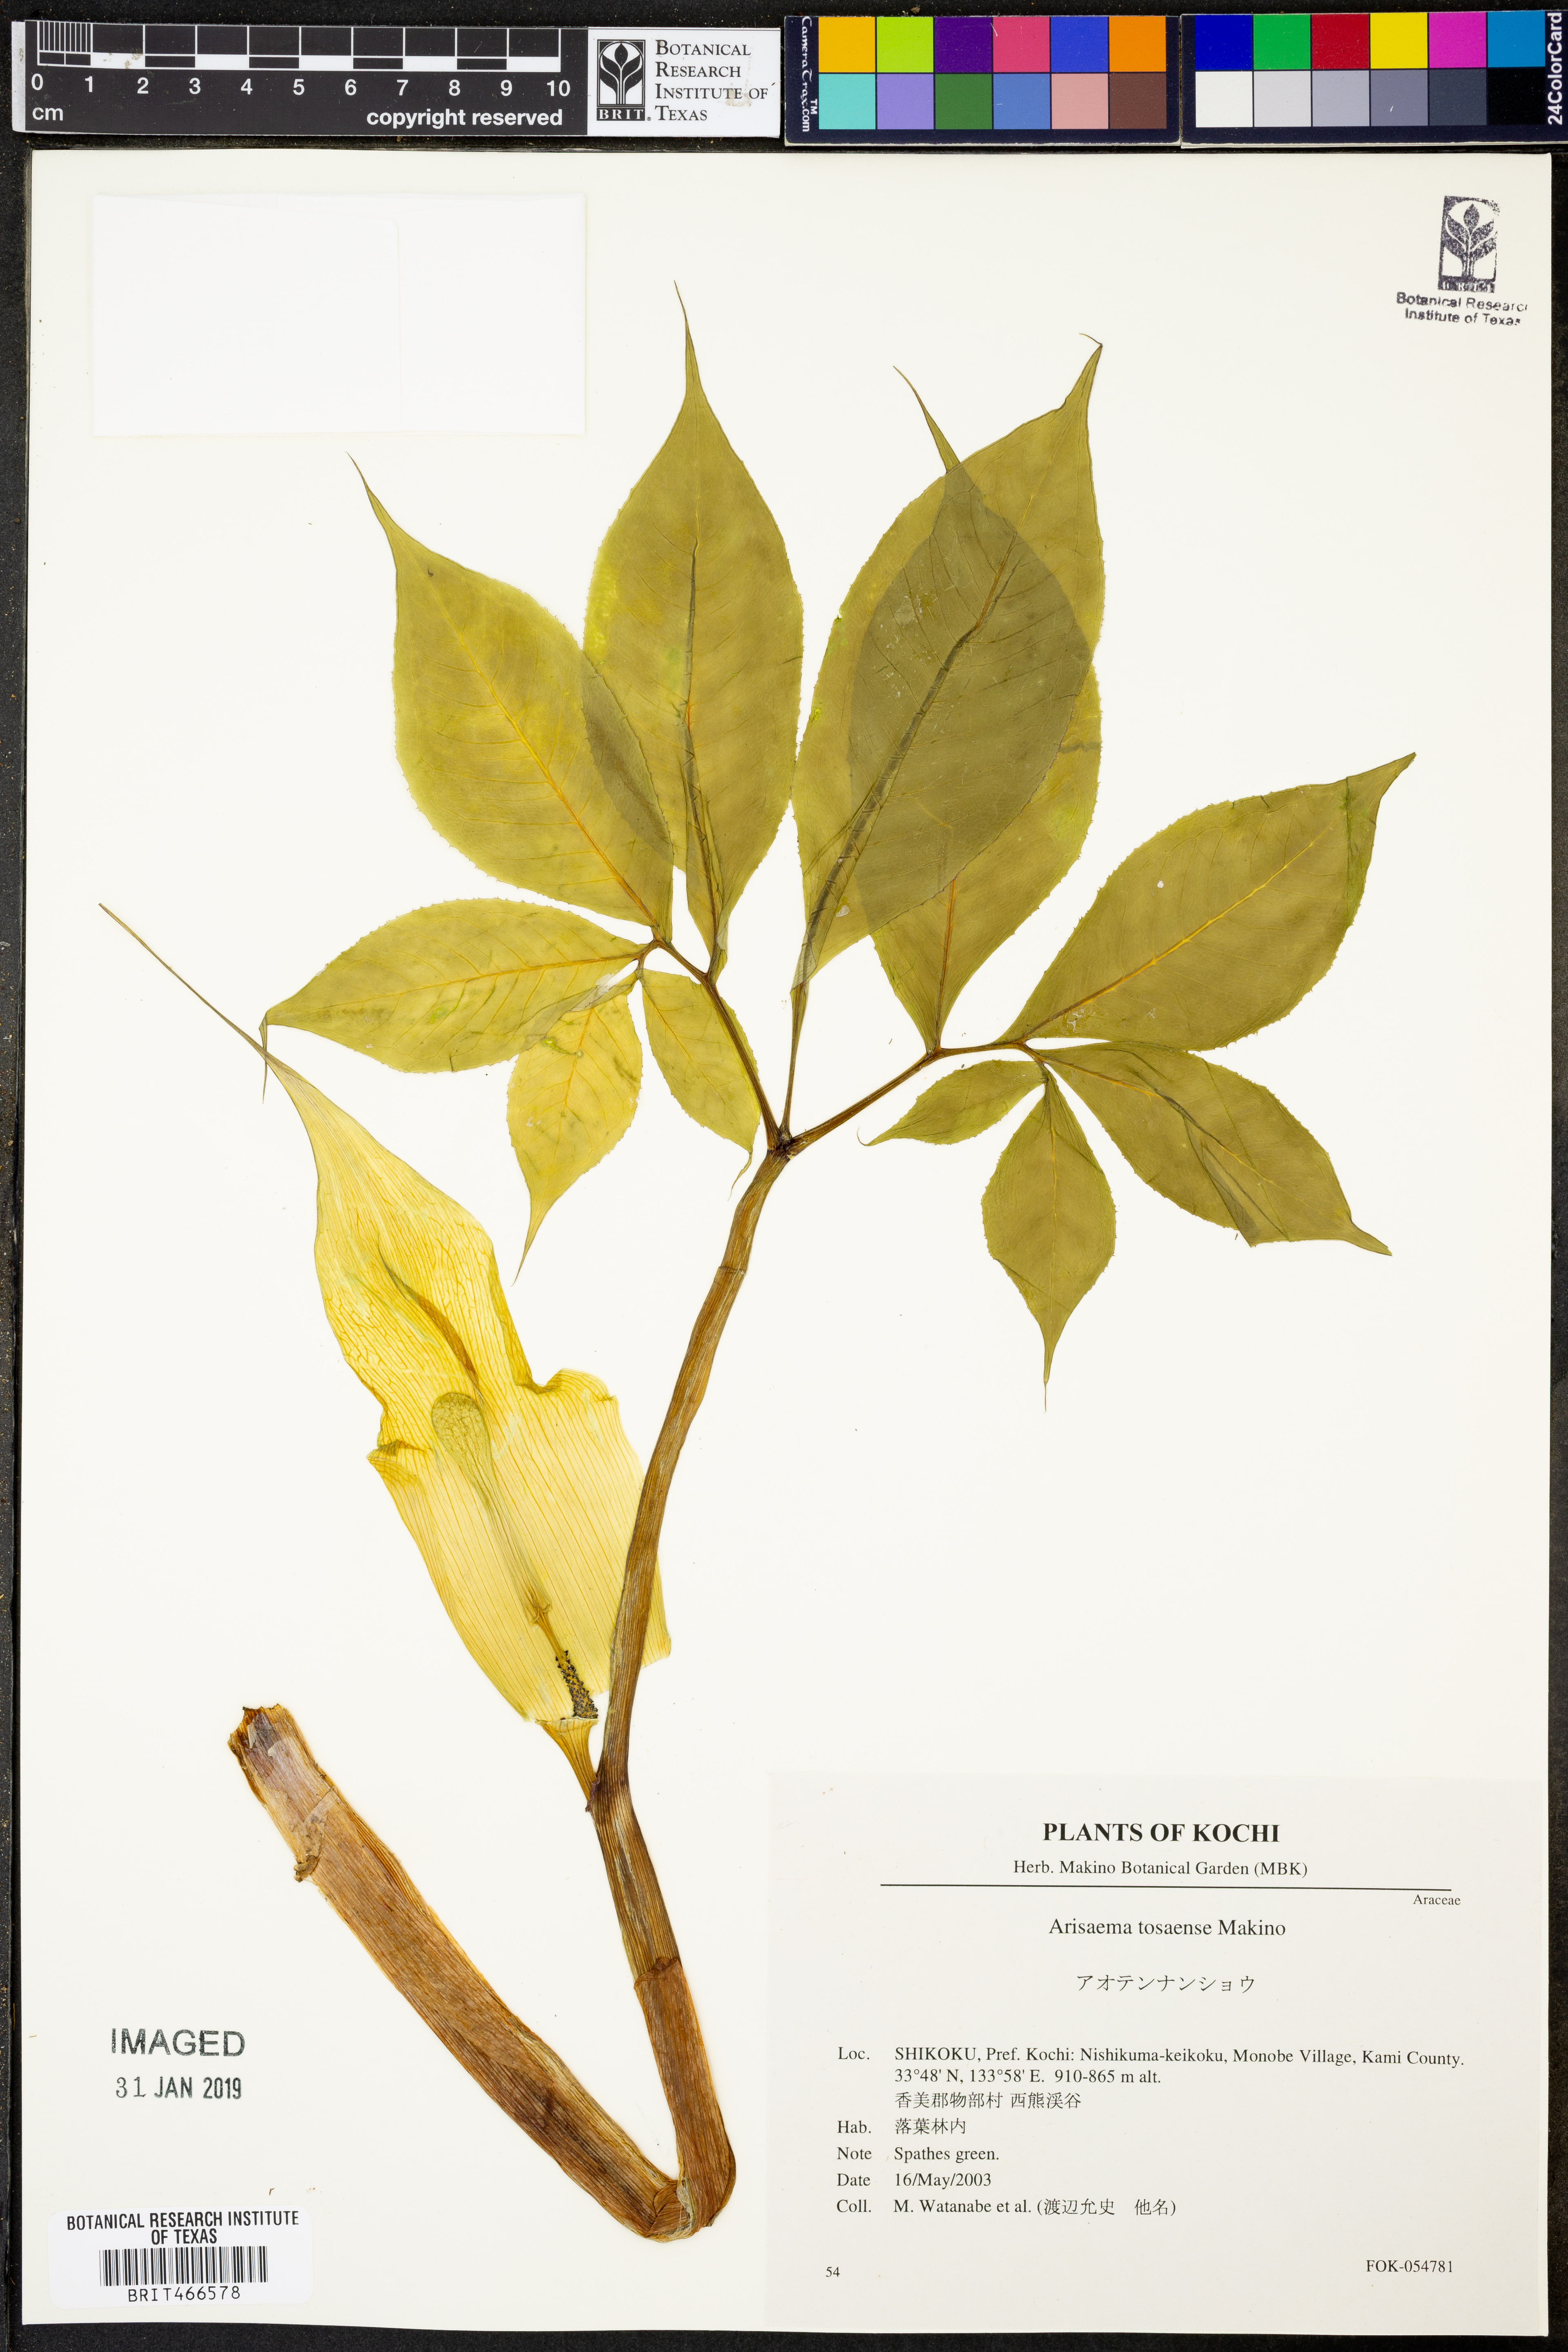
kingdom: Plantae
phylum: Tracheophyta
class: Liliopsida
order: Alismatales
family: Araceae
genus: Arisaema
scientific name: Arisaema tosaense
